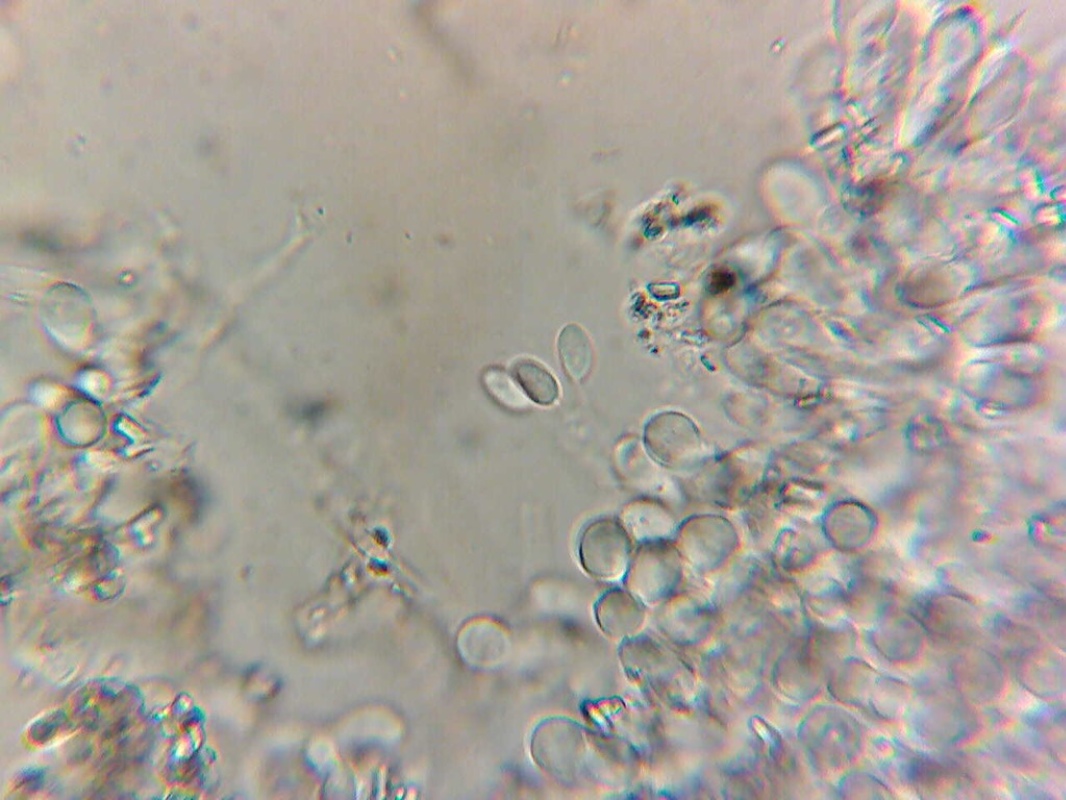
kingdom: Fungi
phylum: Basidiomycota
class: Agaricomycetes
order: Atheliales
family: Atheliaceae
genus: Athelia
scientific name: Athelia epiphylla
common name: almindelig barkhinde
